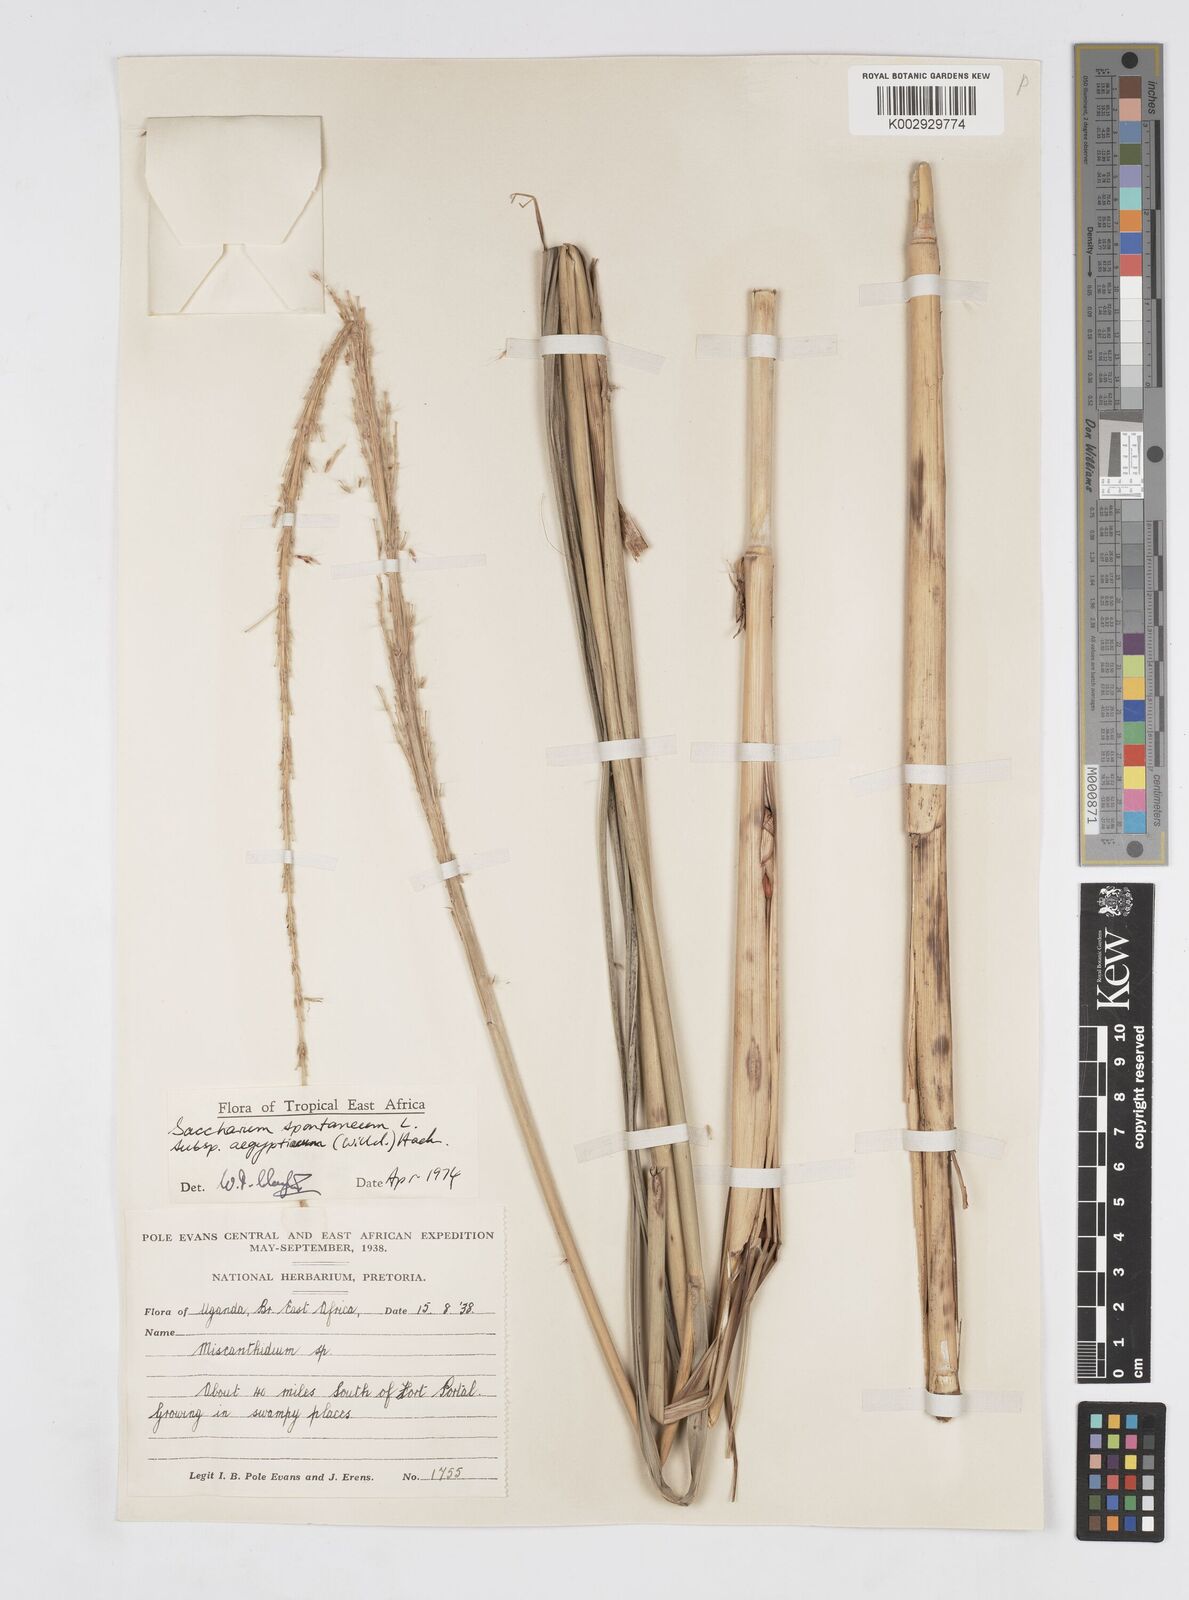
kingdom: Plantae
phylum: Tracheophyta
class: Liliopsida
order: Poales
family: Poaceae
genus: Saccharum
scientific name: Saccharum spontaneum
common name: Wild sugarcane
